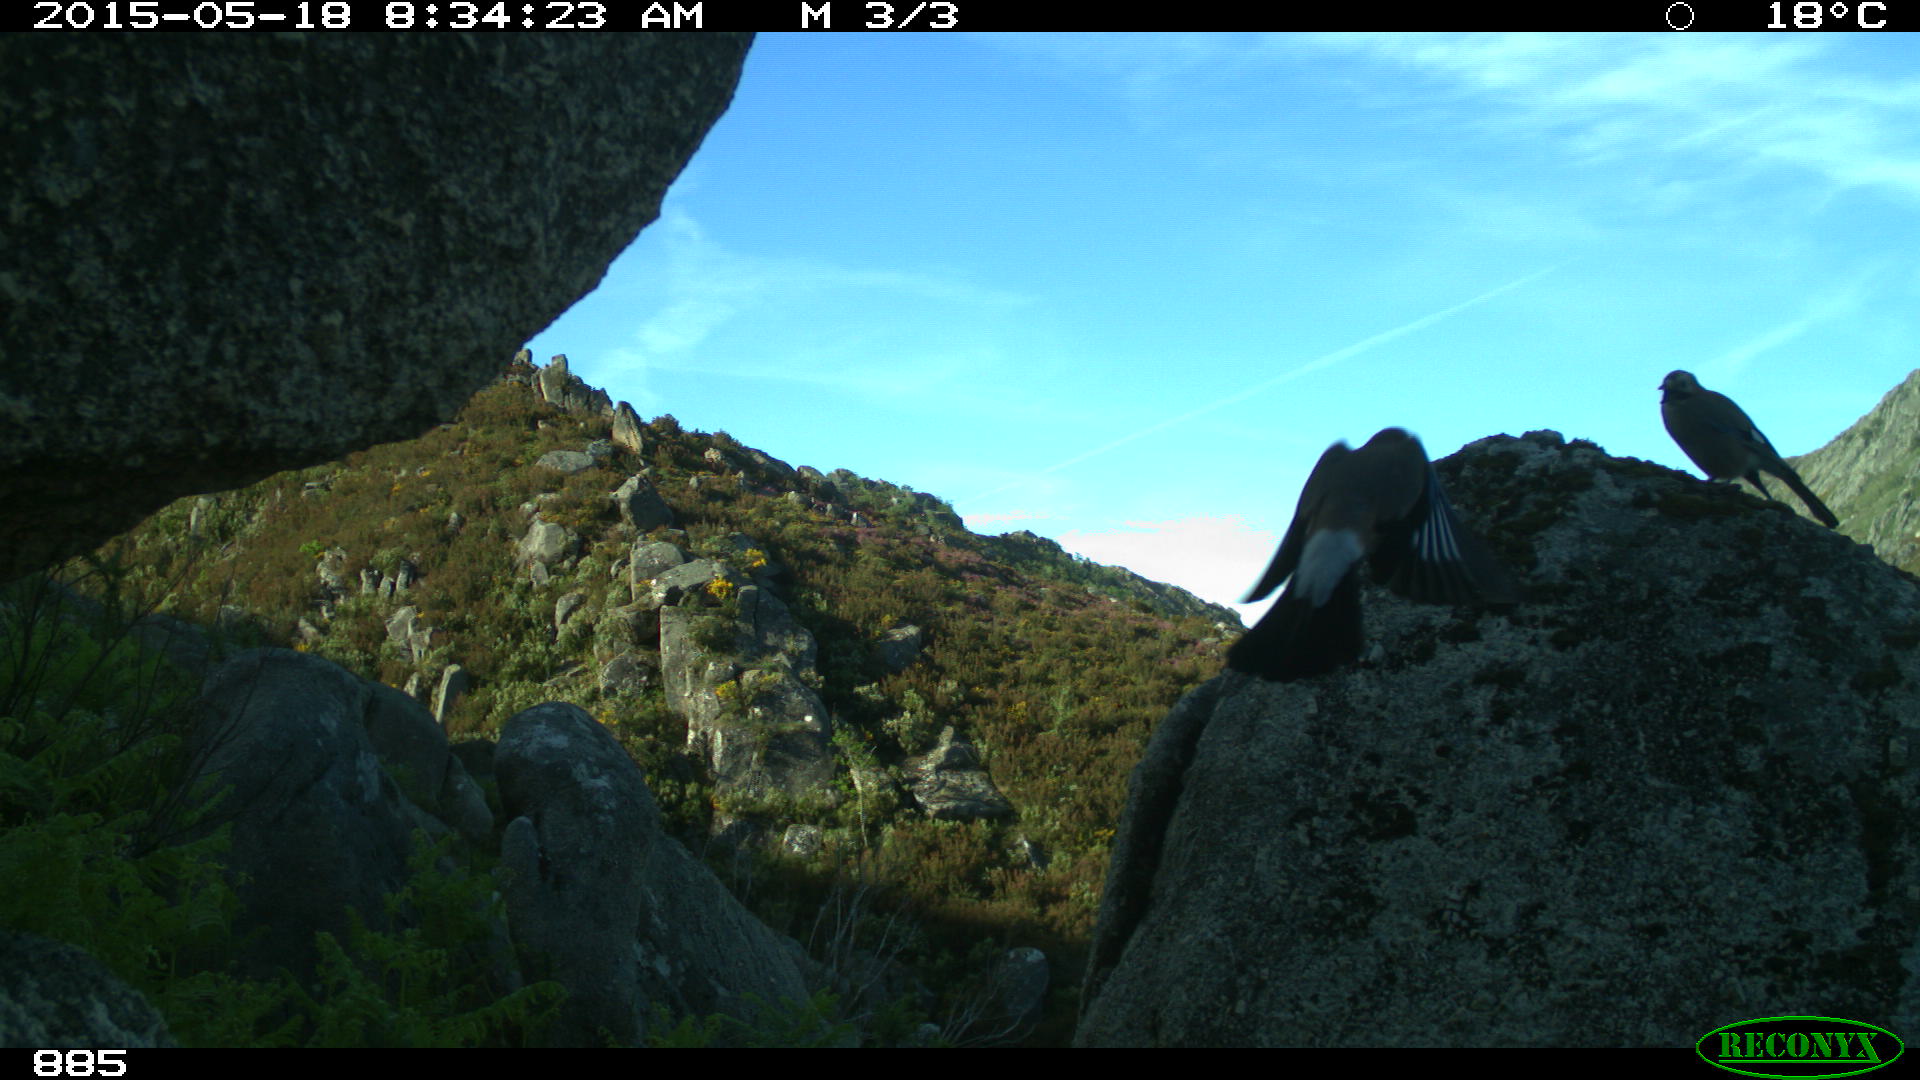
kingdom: Animalia
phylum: Chordata
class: Aves
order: Passeriformes
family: Corvidae
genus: Garrulus
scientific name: Garrulus glandarius
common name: Eurasian jay
